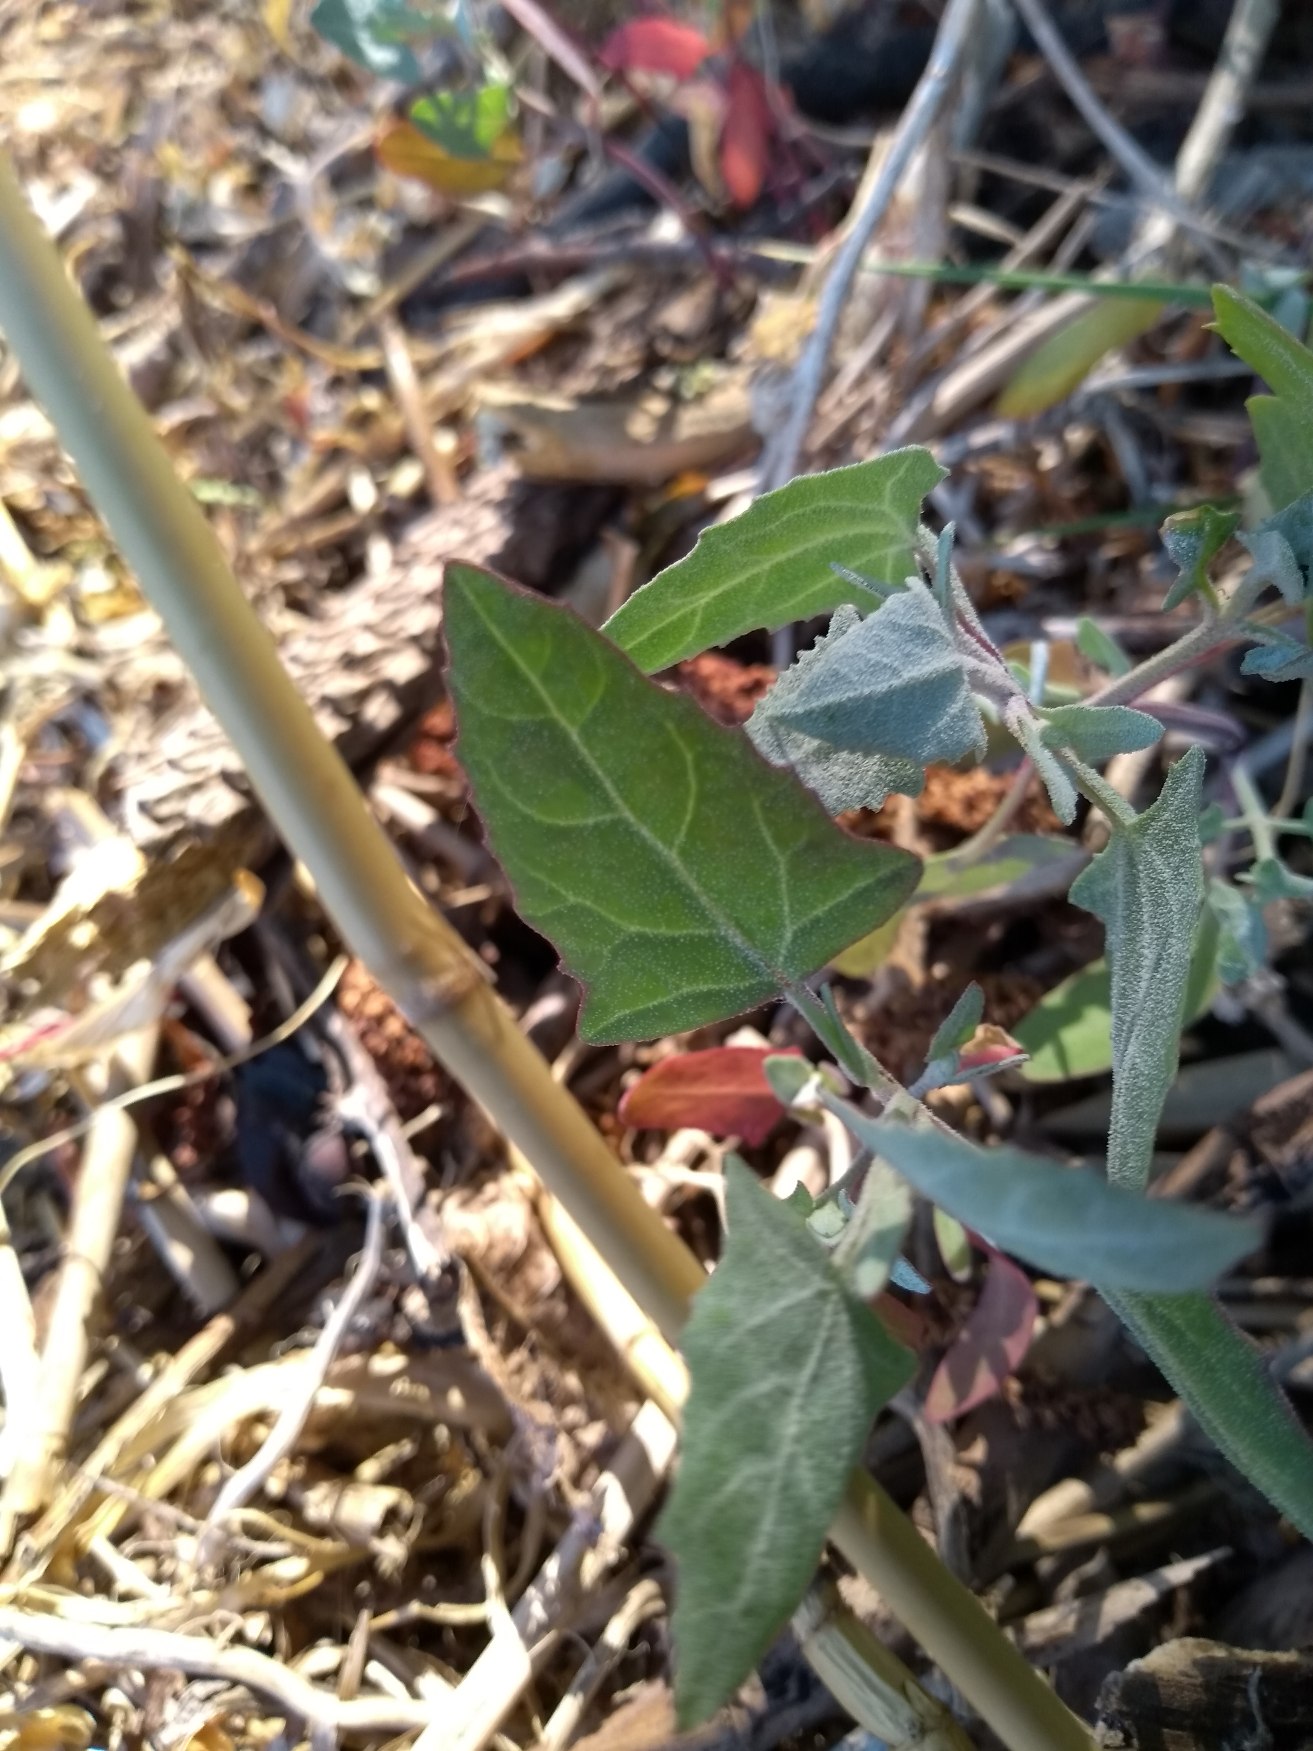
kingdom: Plantae
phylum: Tracheophyta
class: Magnoliopsida
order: Caryophyllales
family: Amaranthaceae
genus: Atriplex
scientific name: Atriplex prostrata
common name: Spyd-mælde
